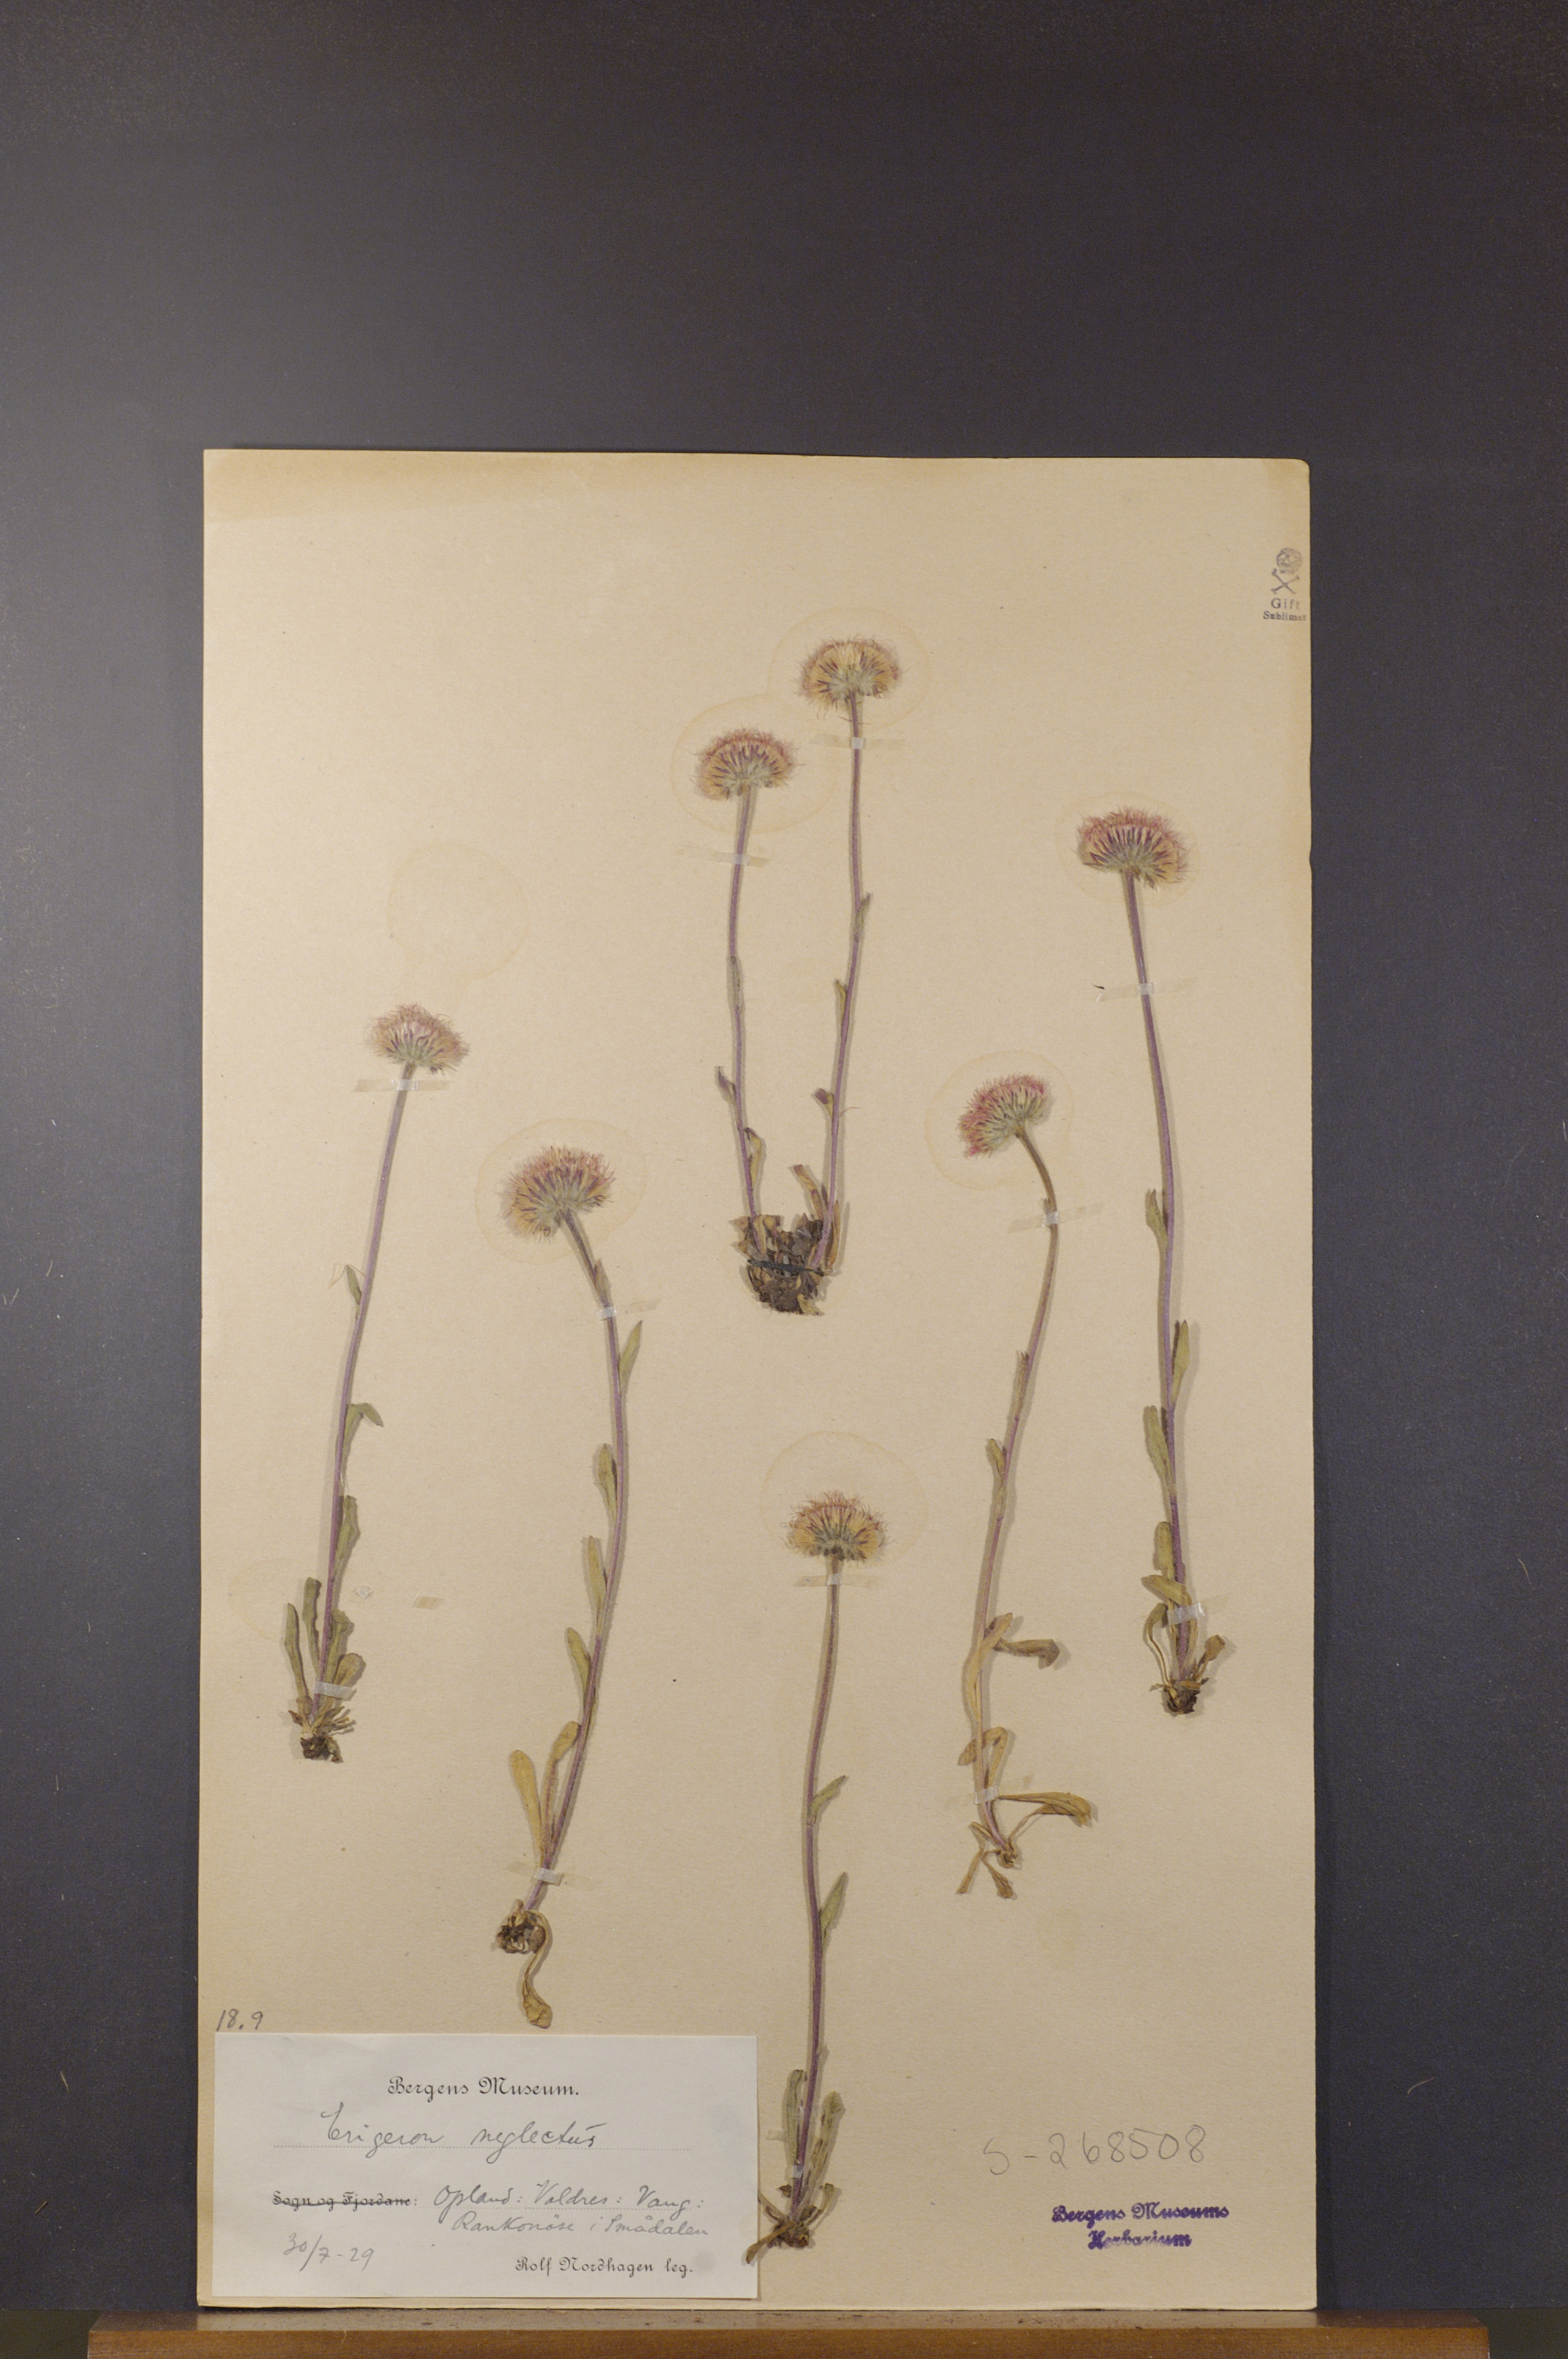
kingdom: Plantae
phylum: Tracheophyta
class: Magnoliopsida
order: Asterales
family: Asteraceae
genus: Erigeron
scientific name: Erigeron neglectus
